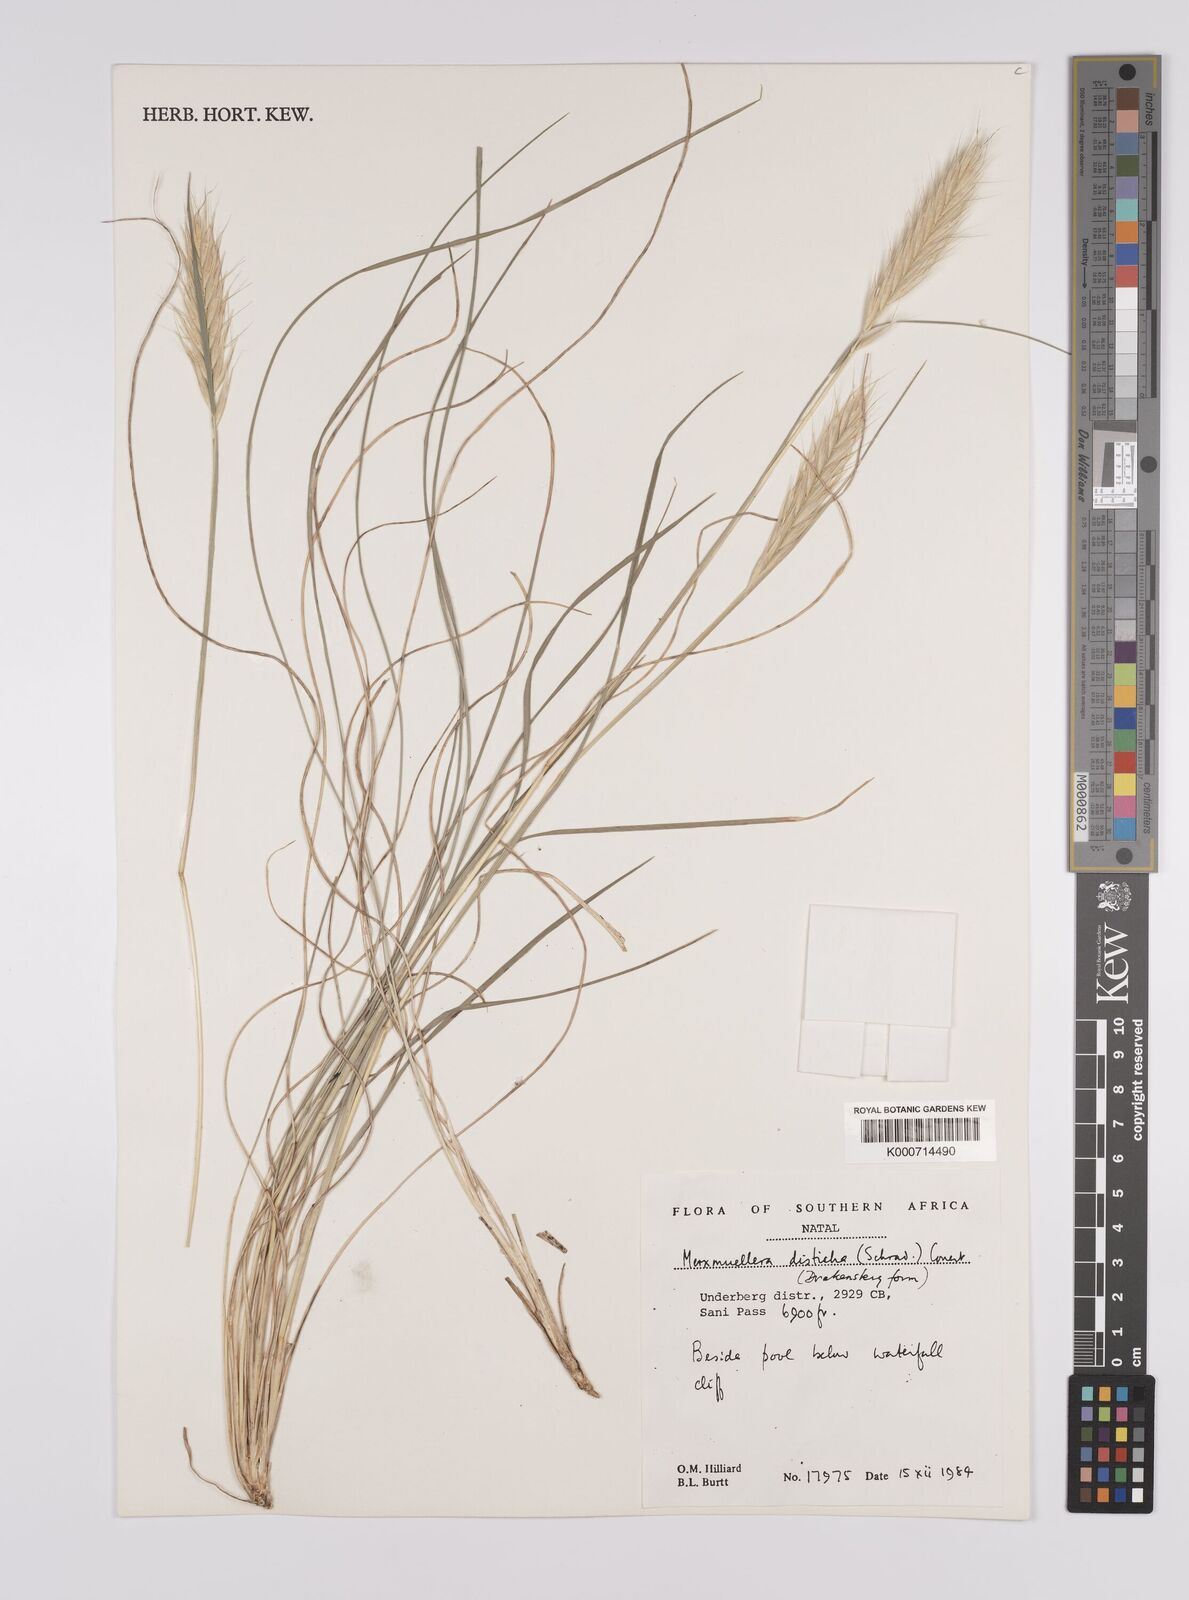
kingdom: Plantae
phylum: Tracheophyta
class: Liliopsida
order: Poales
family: Poaceae
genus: Tenaxia
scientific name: Tenaxia disticha
